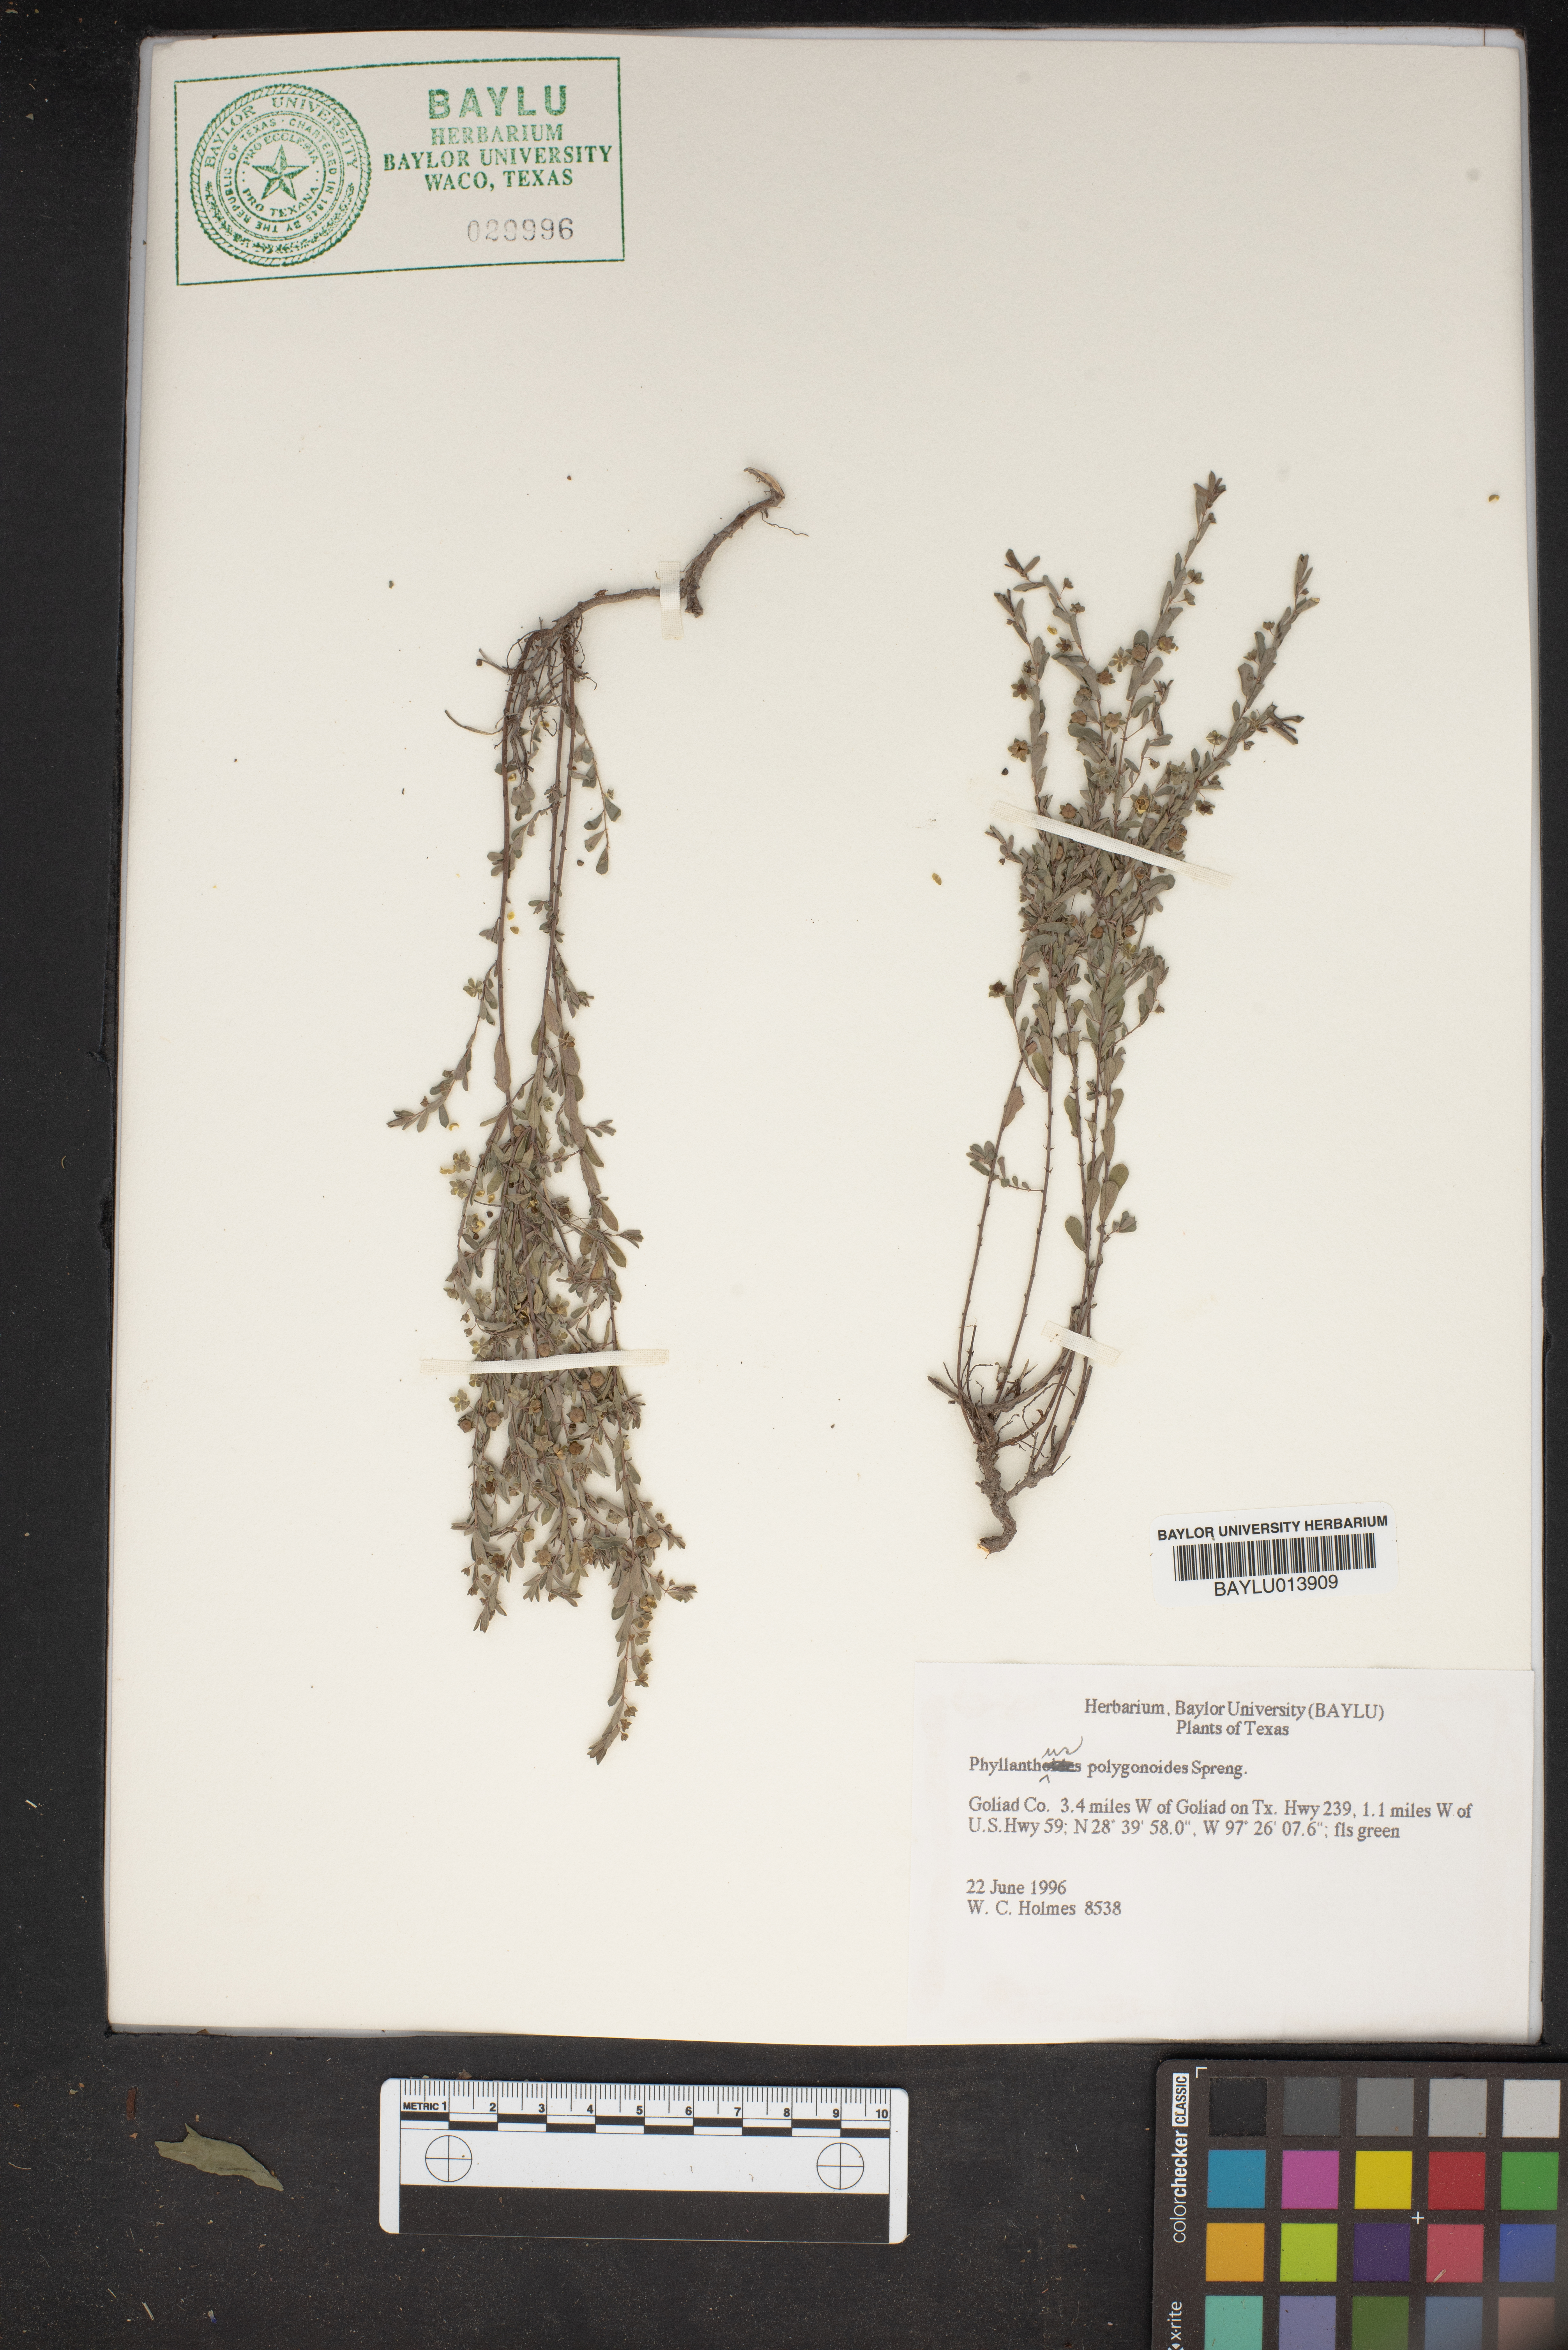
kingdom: Plantae
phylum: Tracheophyta
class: Magnoliopsida
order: Malpighiales
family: Phyllanthaceae
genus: Phyllanthus
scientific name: Phyllanthus polygonoides
